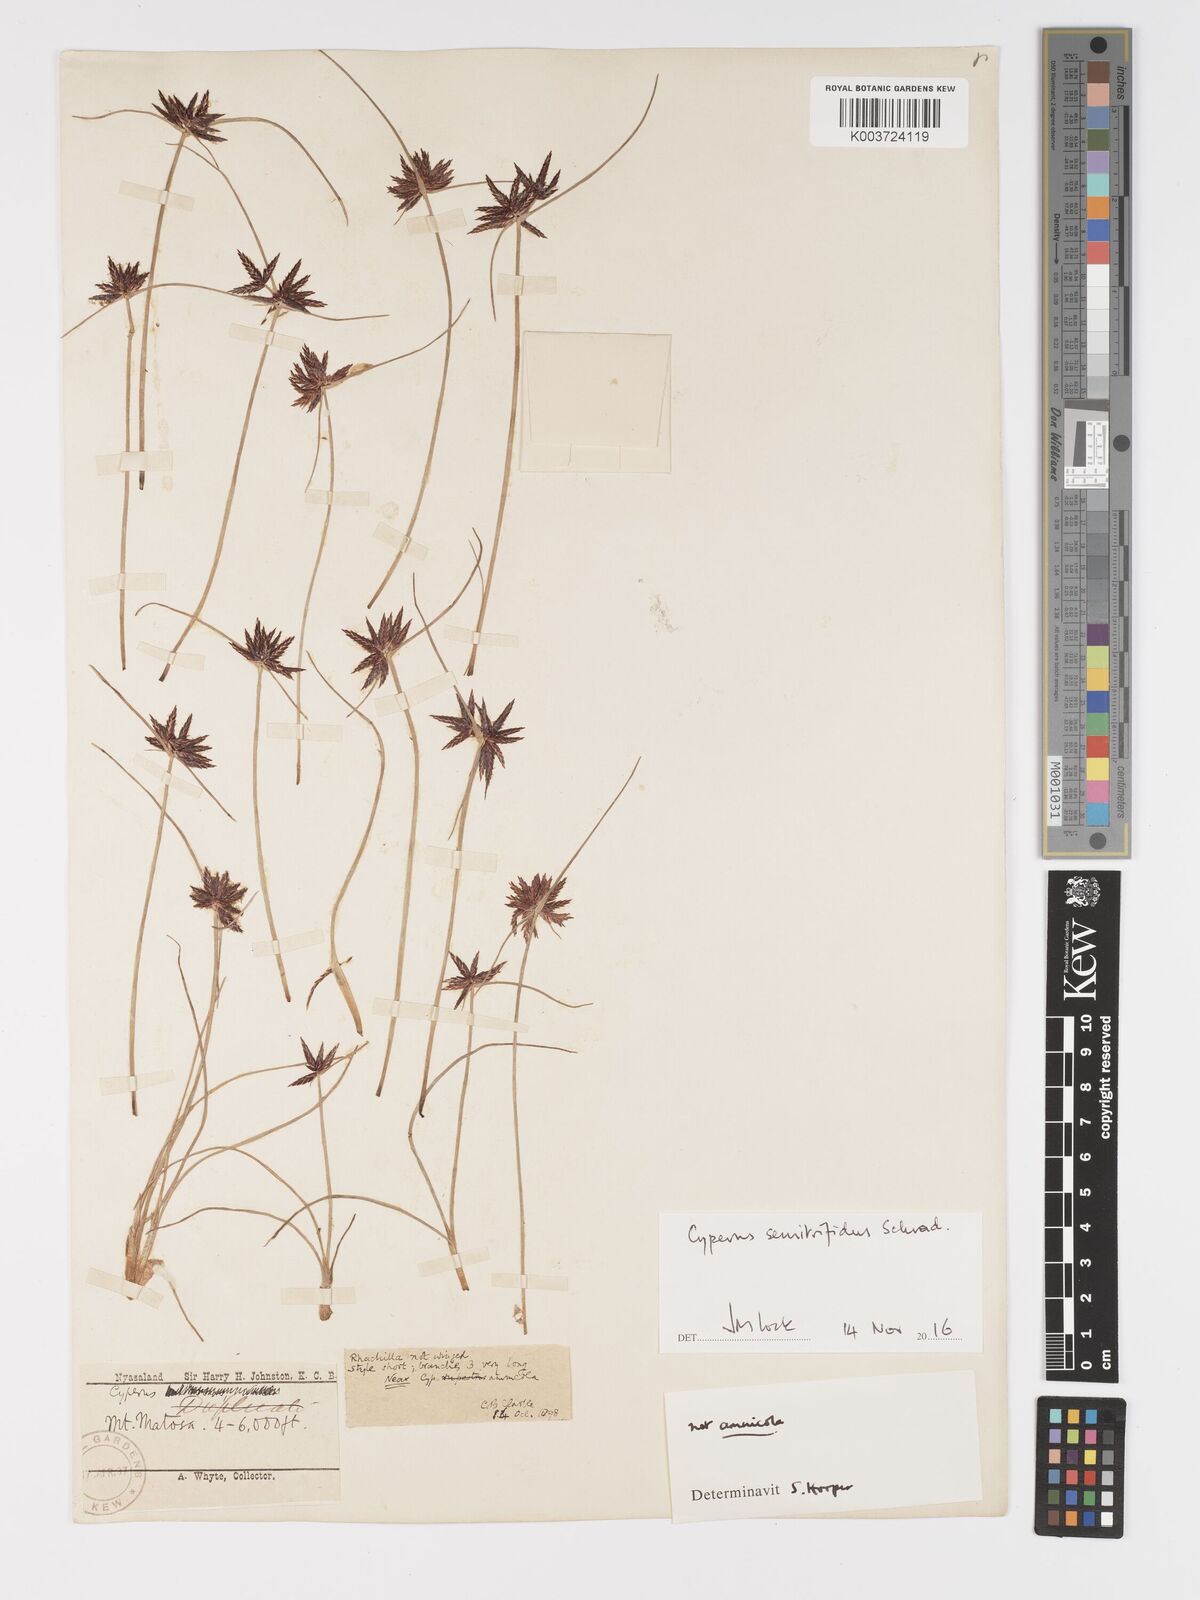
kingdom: Plantae
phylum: Tracheophyta
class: Liliopsida
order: Poales
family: Cyperaceae
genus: Cyperus
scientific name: Cyperus semitrifidus
